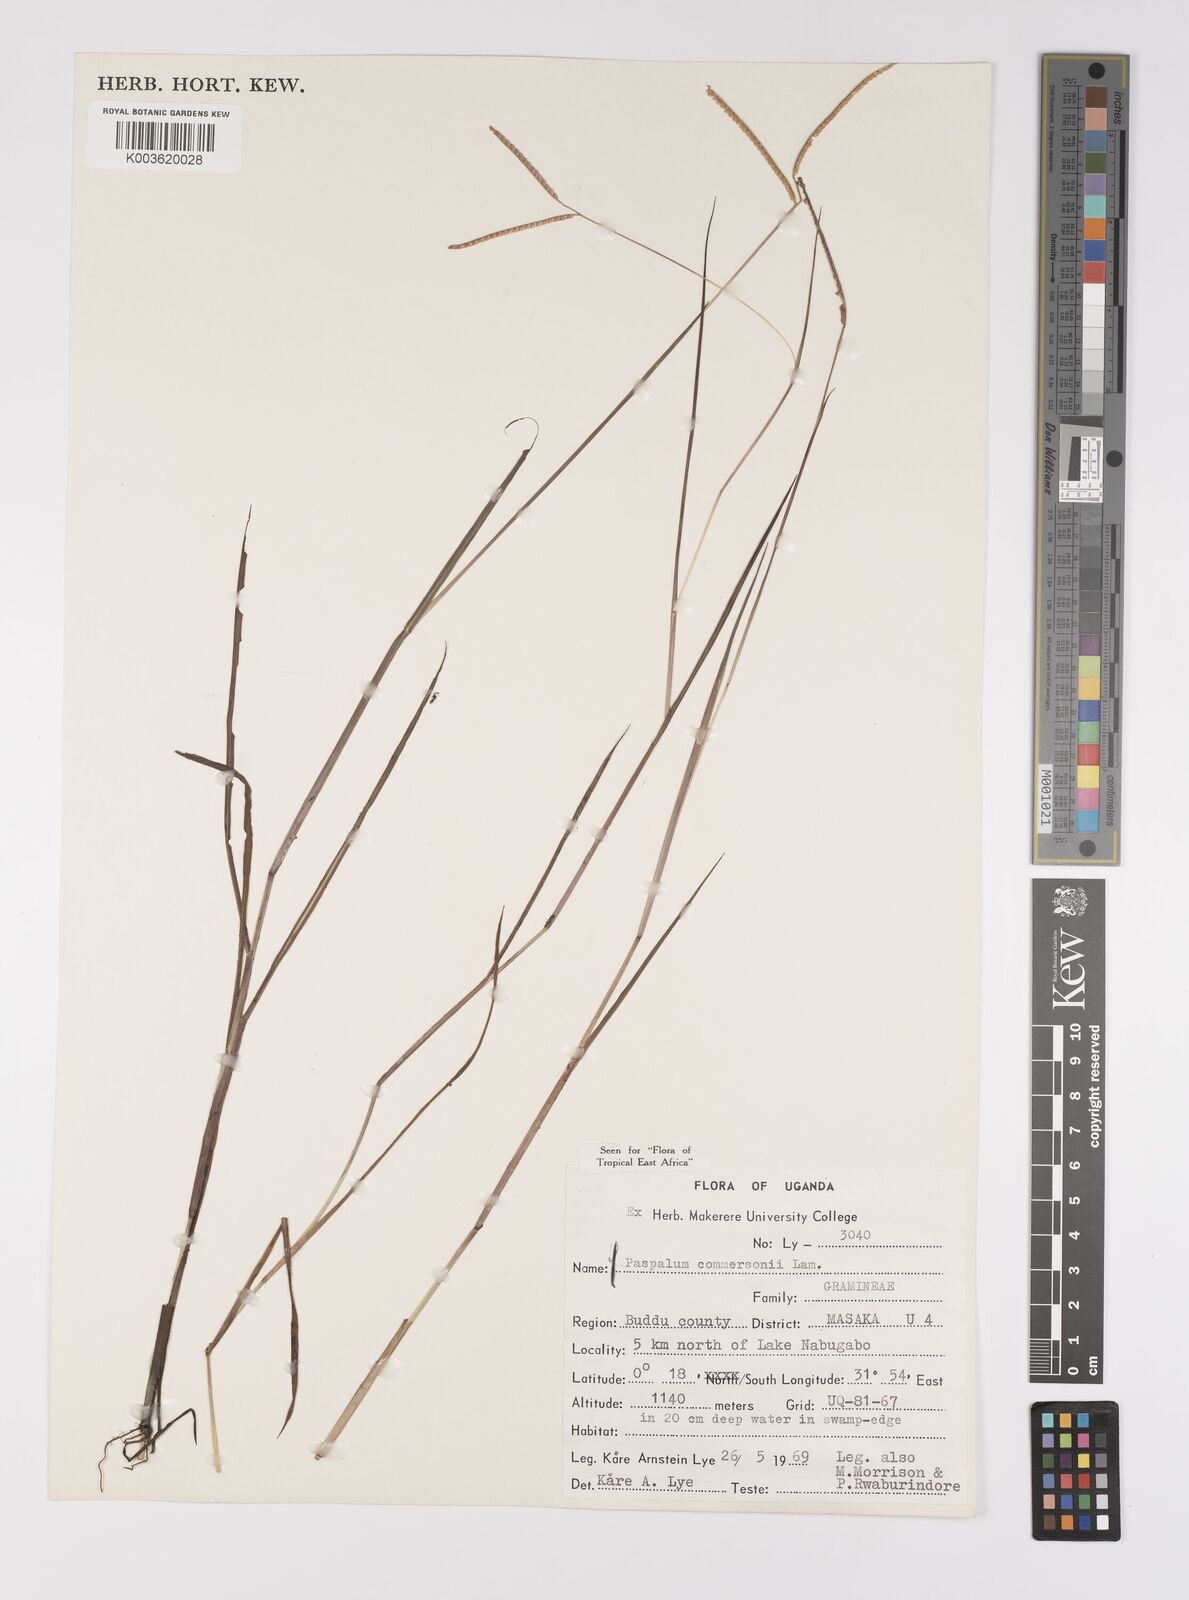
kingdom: Plantae
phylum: Tracheophyta
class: Liliopsida
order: Poales
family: Poaceae
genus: Paspalum
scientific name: Paspalum scrobiculatum
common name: Kodo millet
